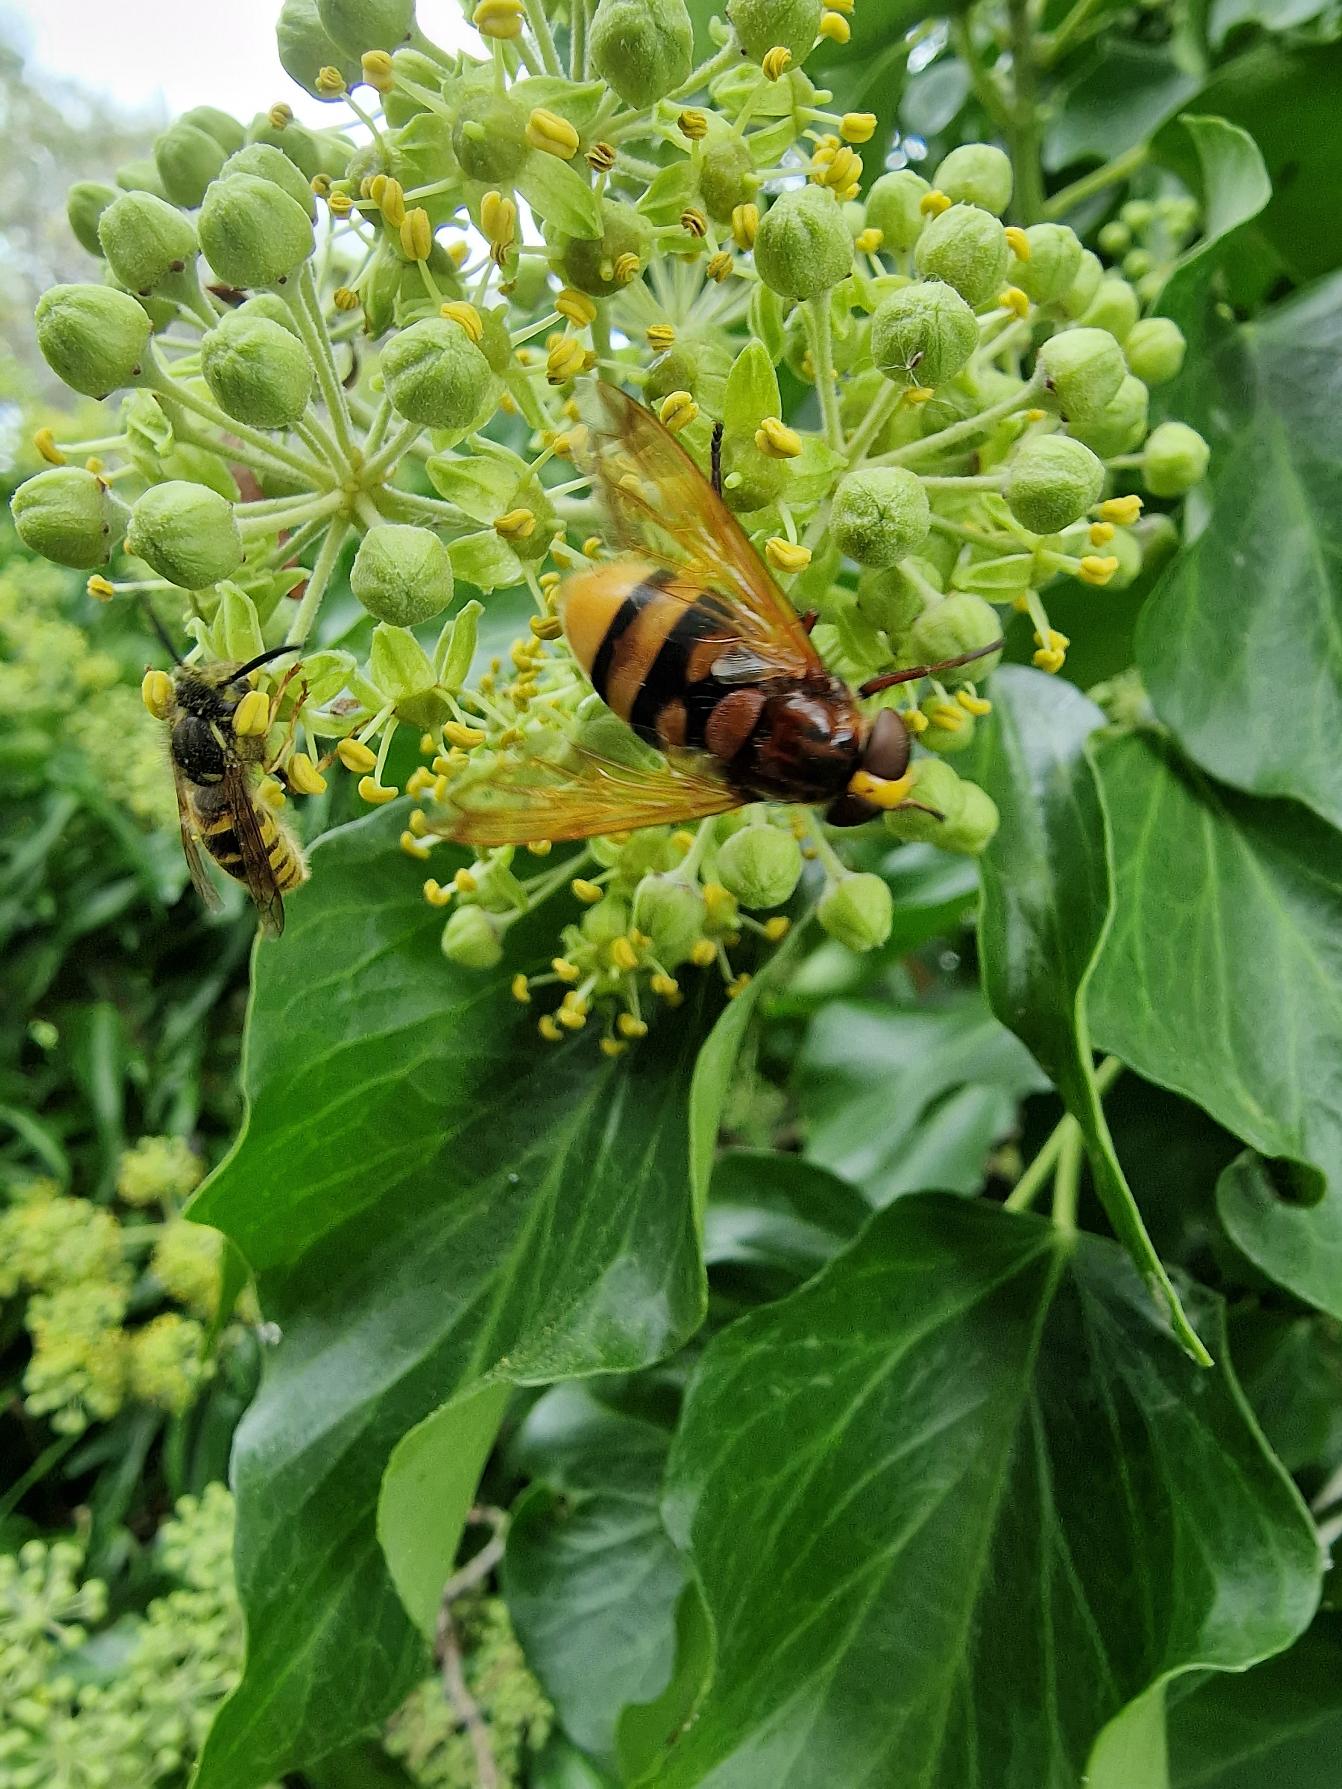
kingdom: Animalia
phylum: Arthropoda
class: Insecta
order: Diptera
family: Syrphidae
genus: Volucella
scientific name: Volucella zonaria
